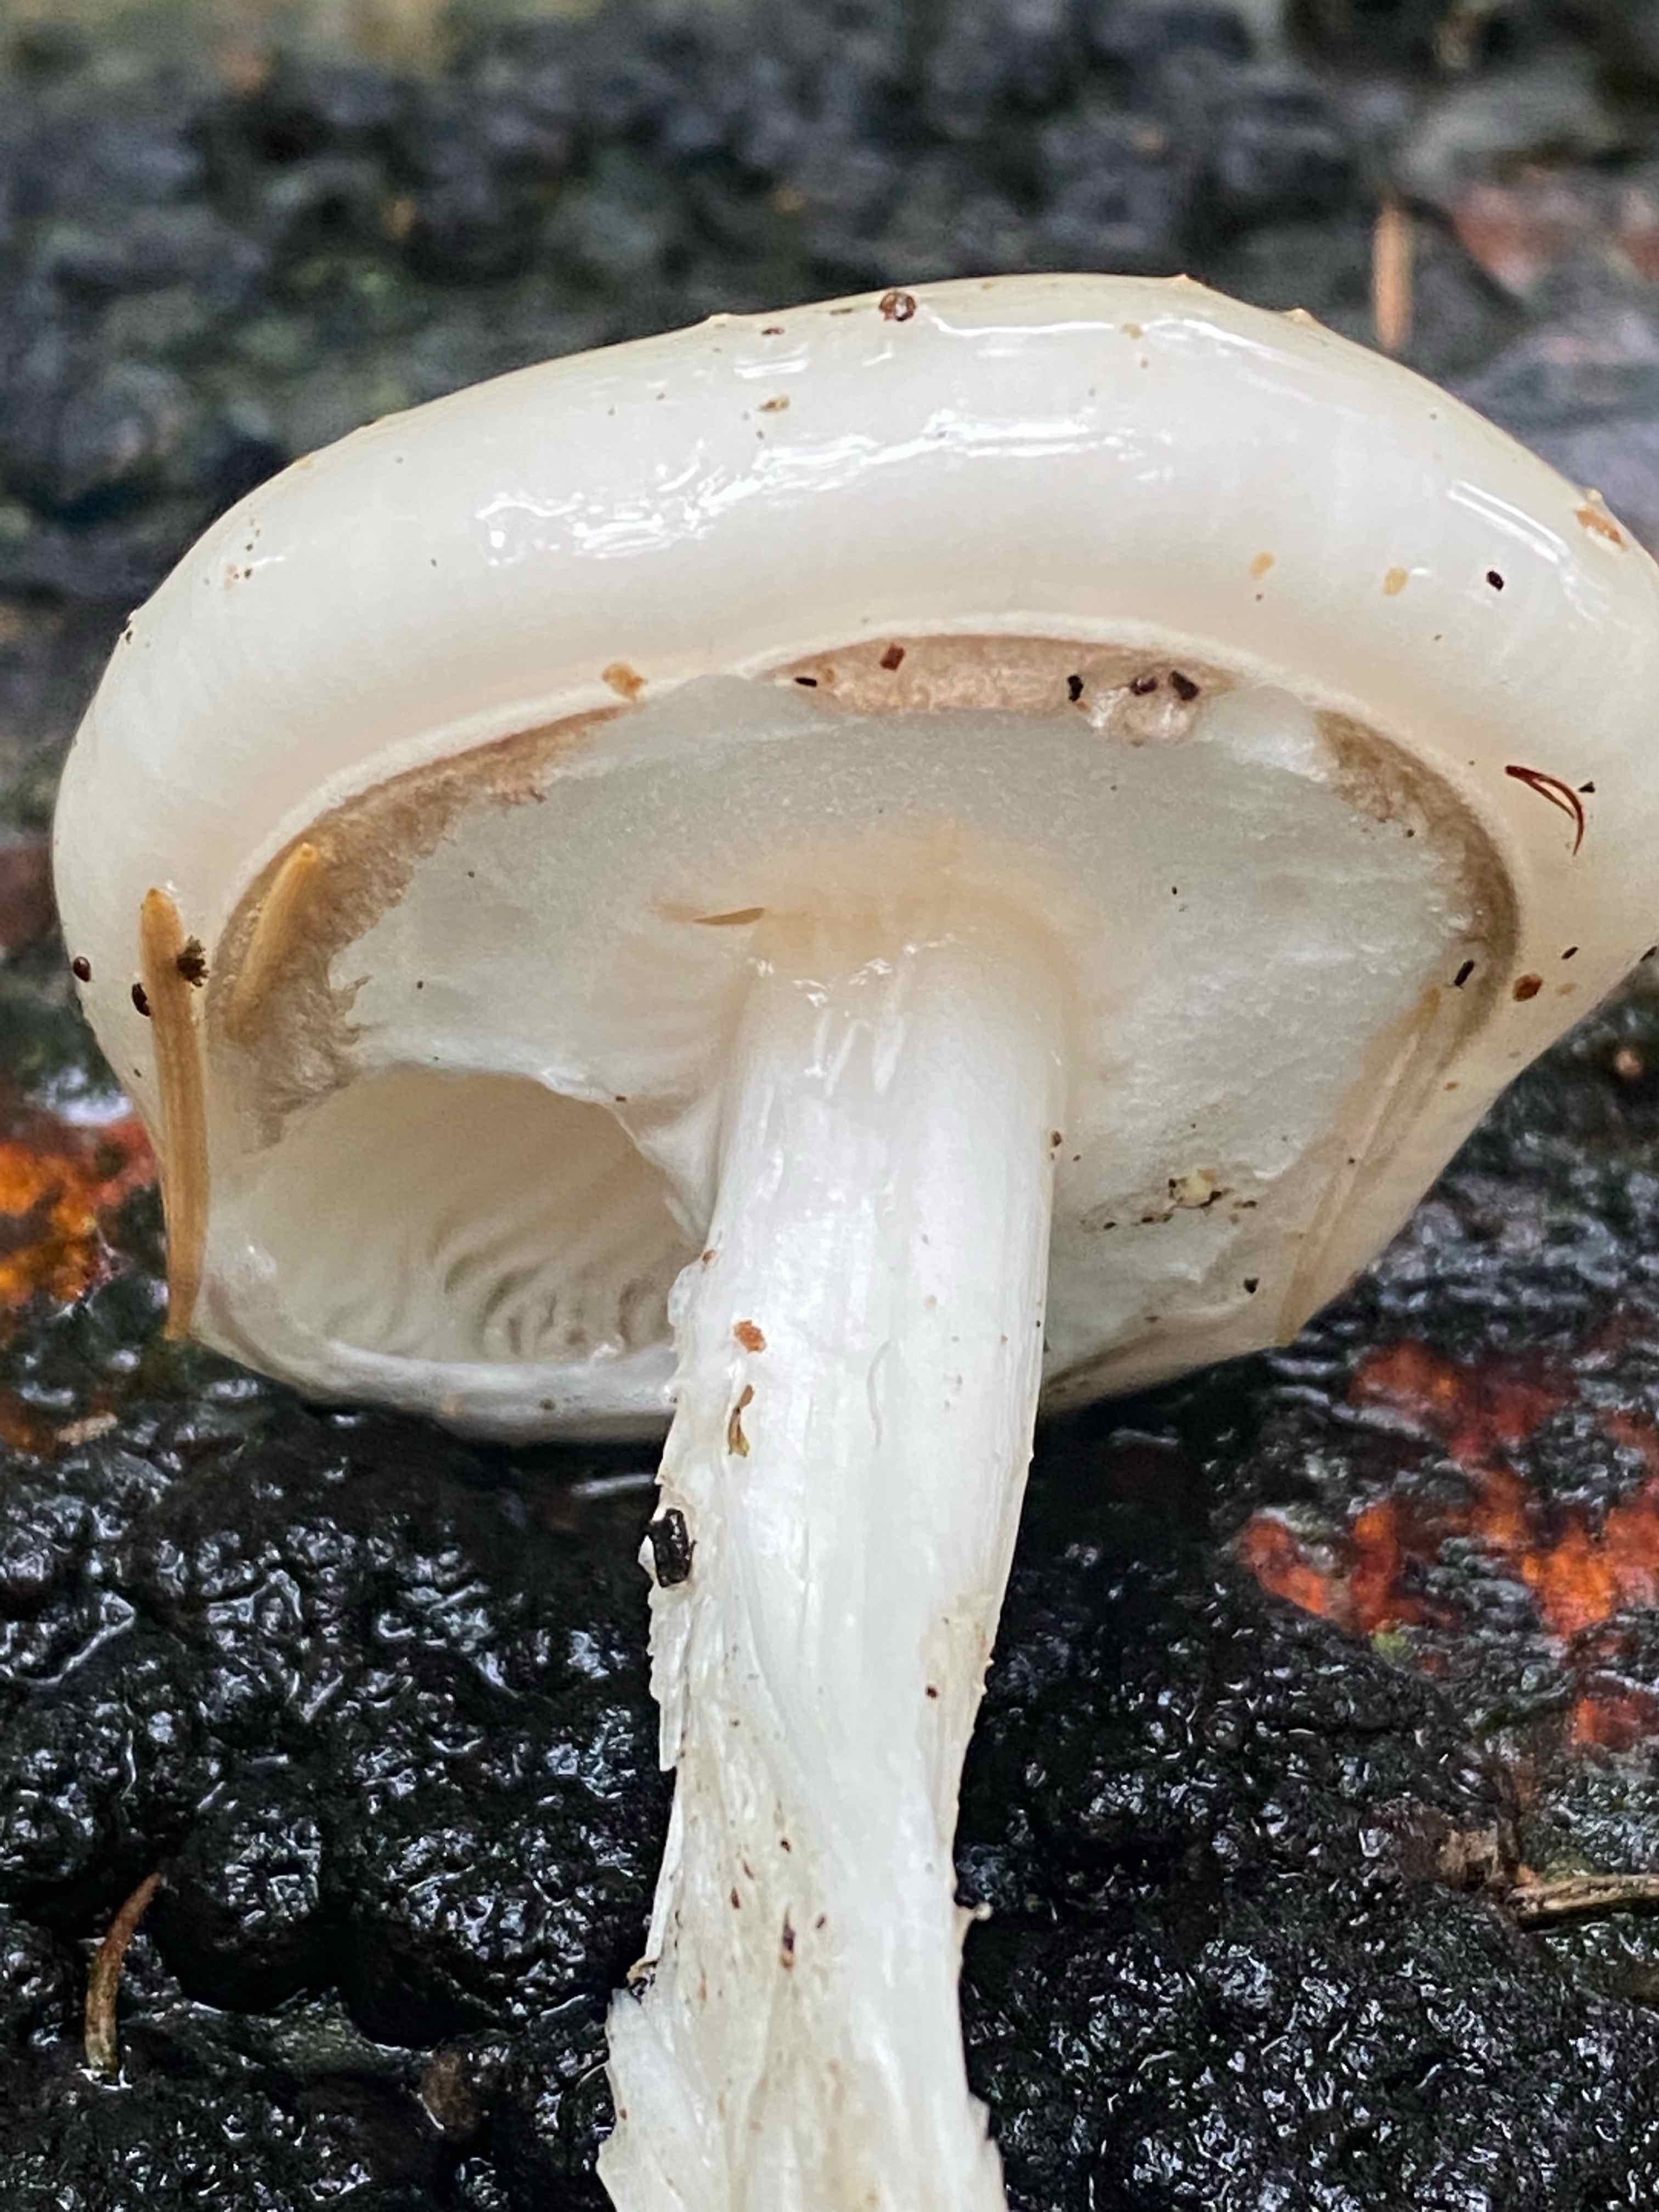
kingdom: Fungi
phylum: Basidiomycota
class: Agaricomycetes
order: Agaricales
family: Physalacriaceae
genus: Mucidula
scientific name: Mucidula mucida
